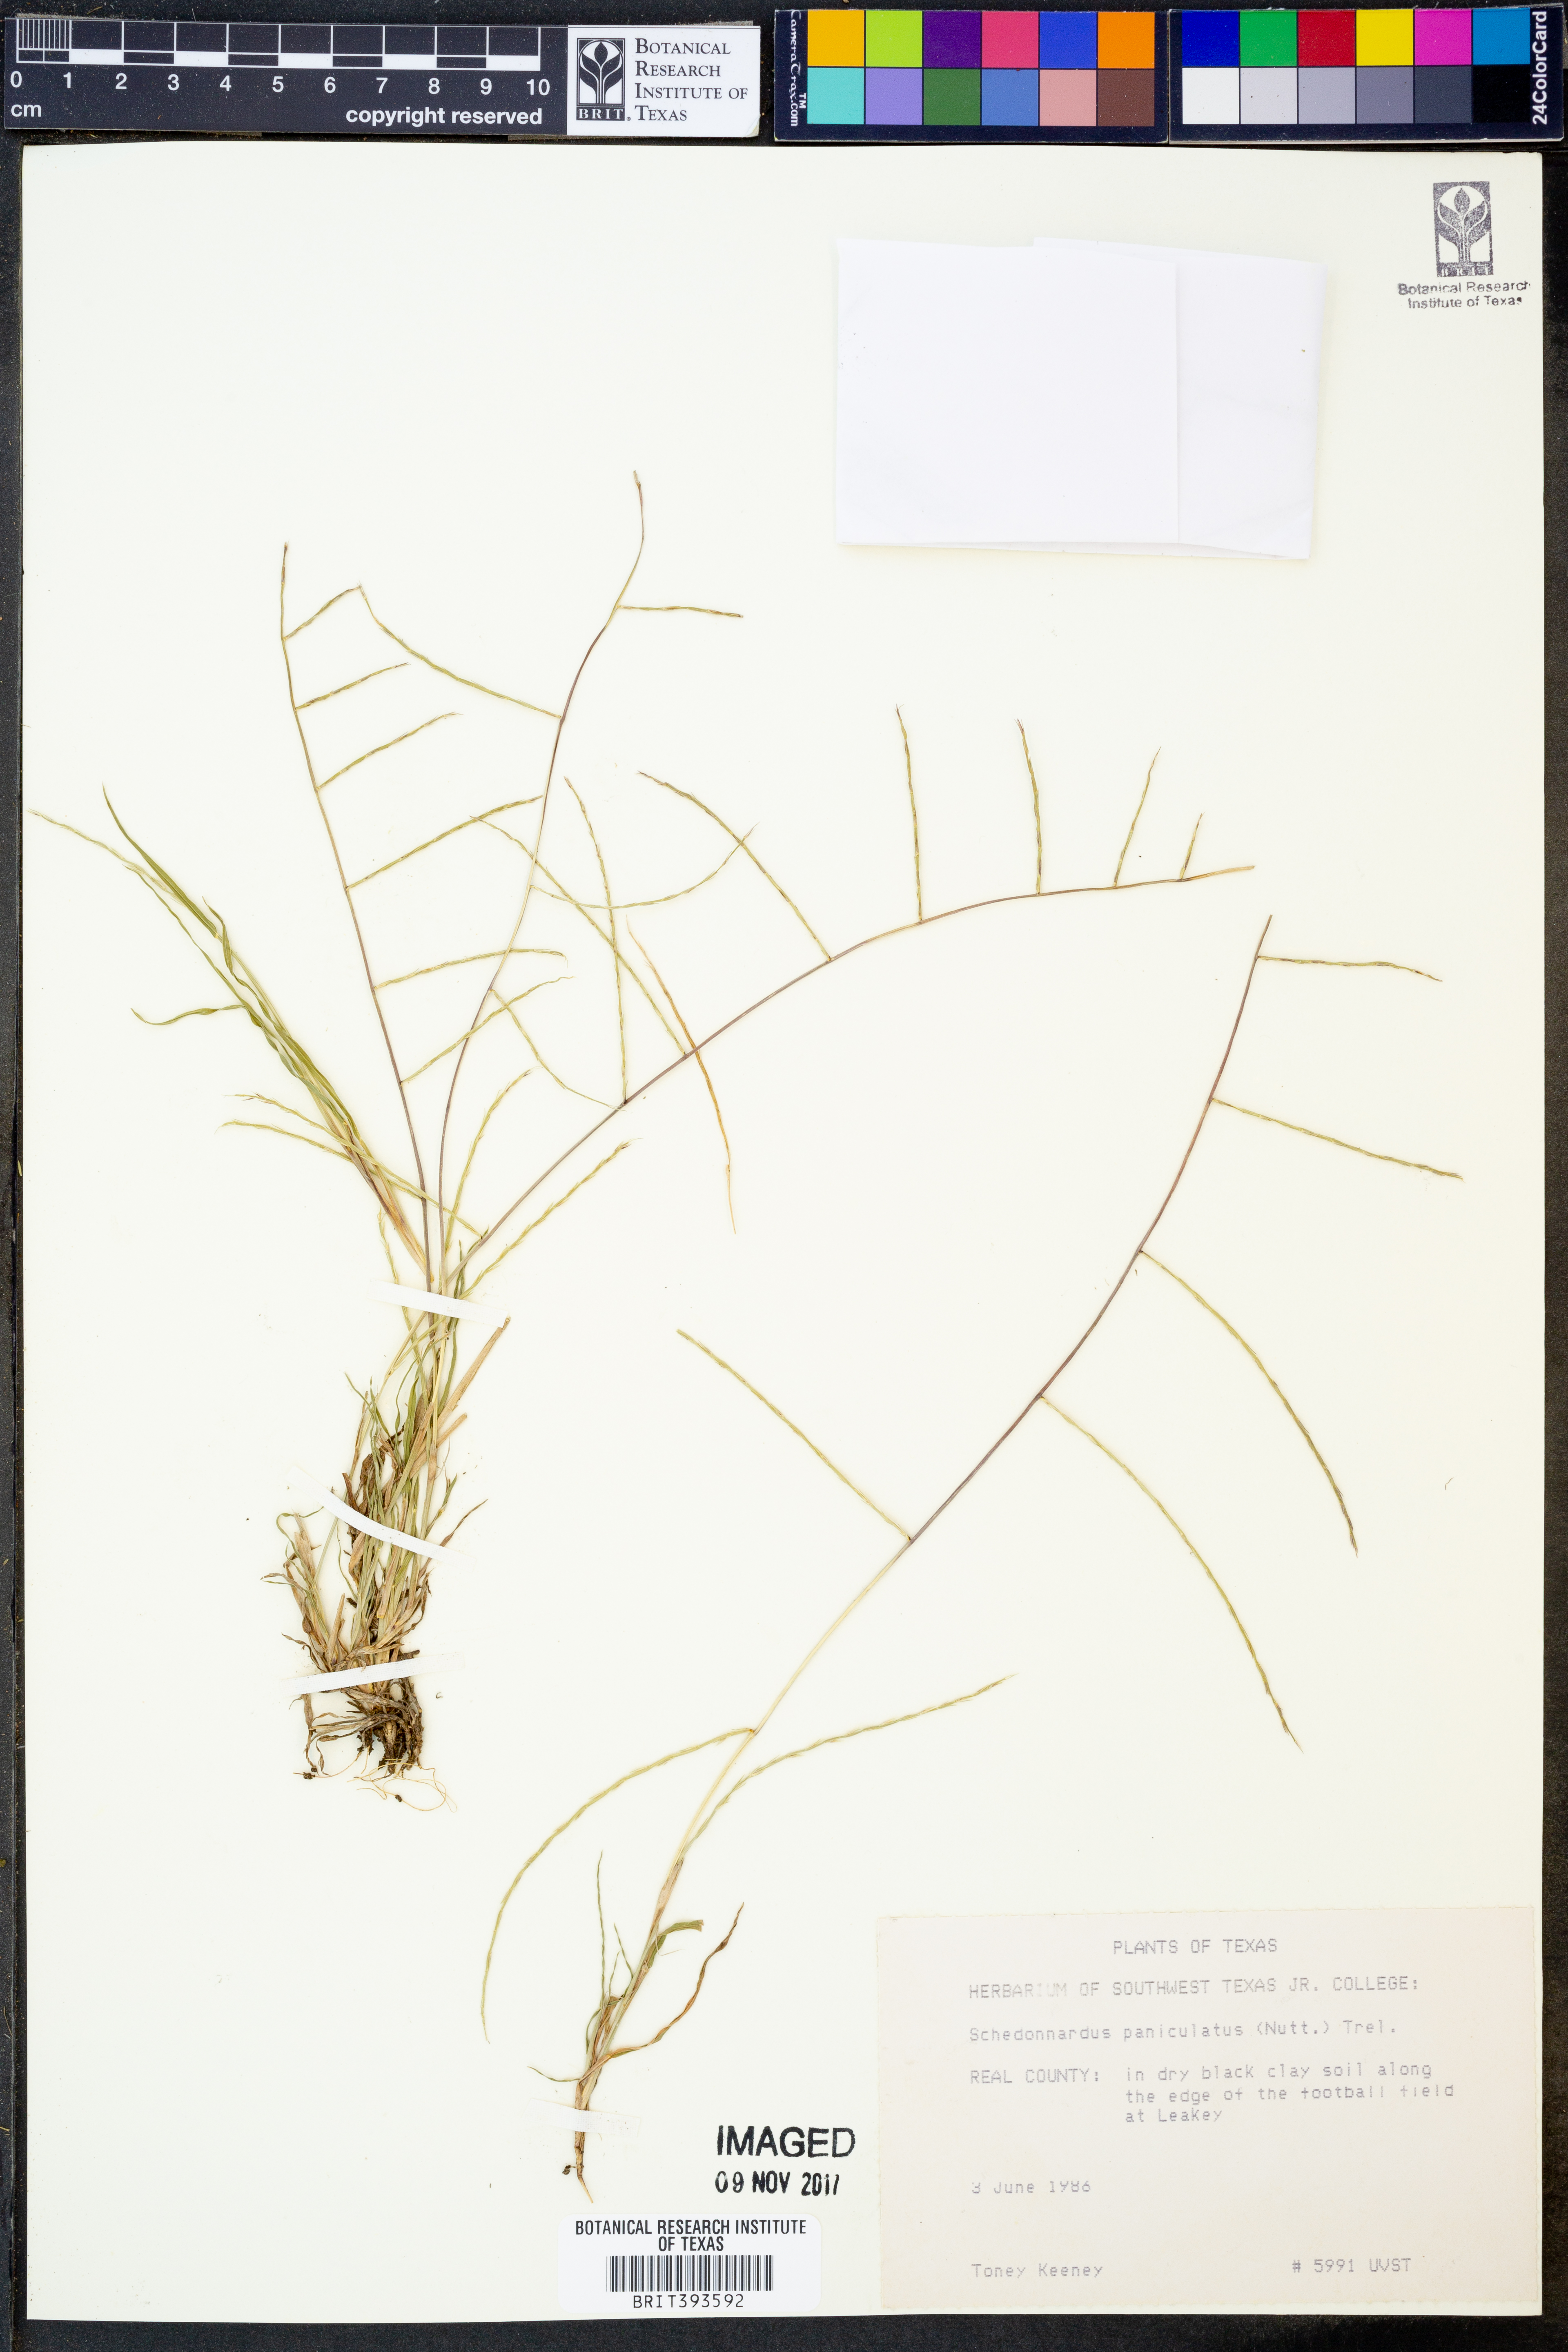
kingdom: Plantae
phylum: Tracheophyta
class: Liliopsida
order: Poales
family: Poaceae
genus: Muhlenbergia
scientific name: Muhlenbergia paniculata
